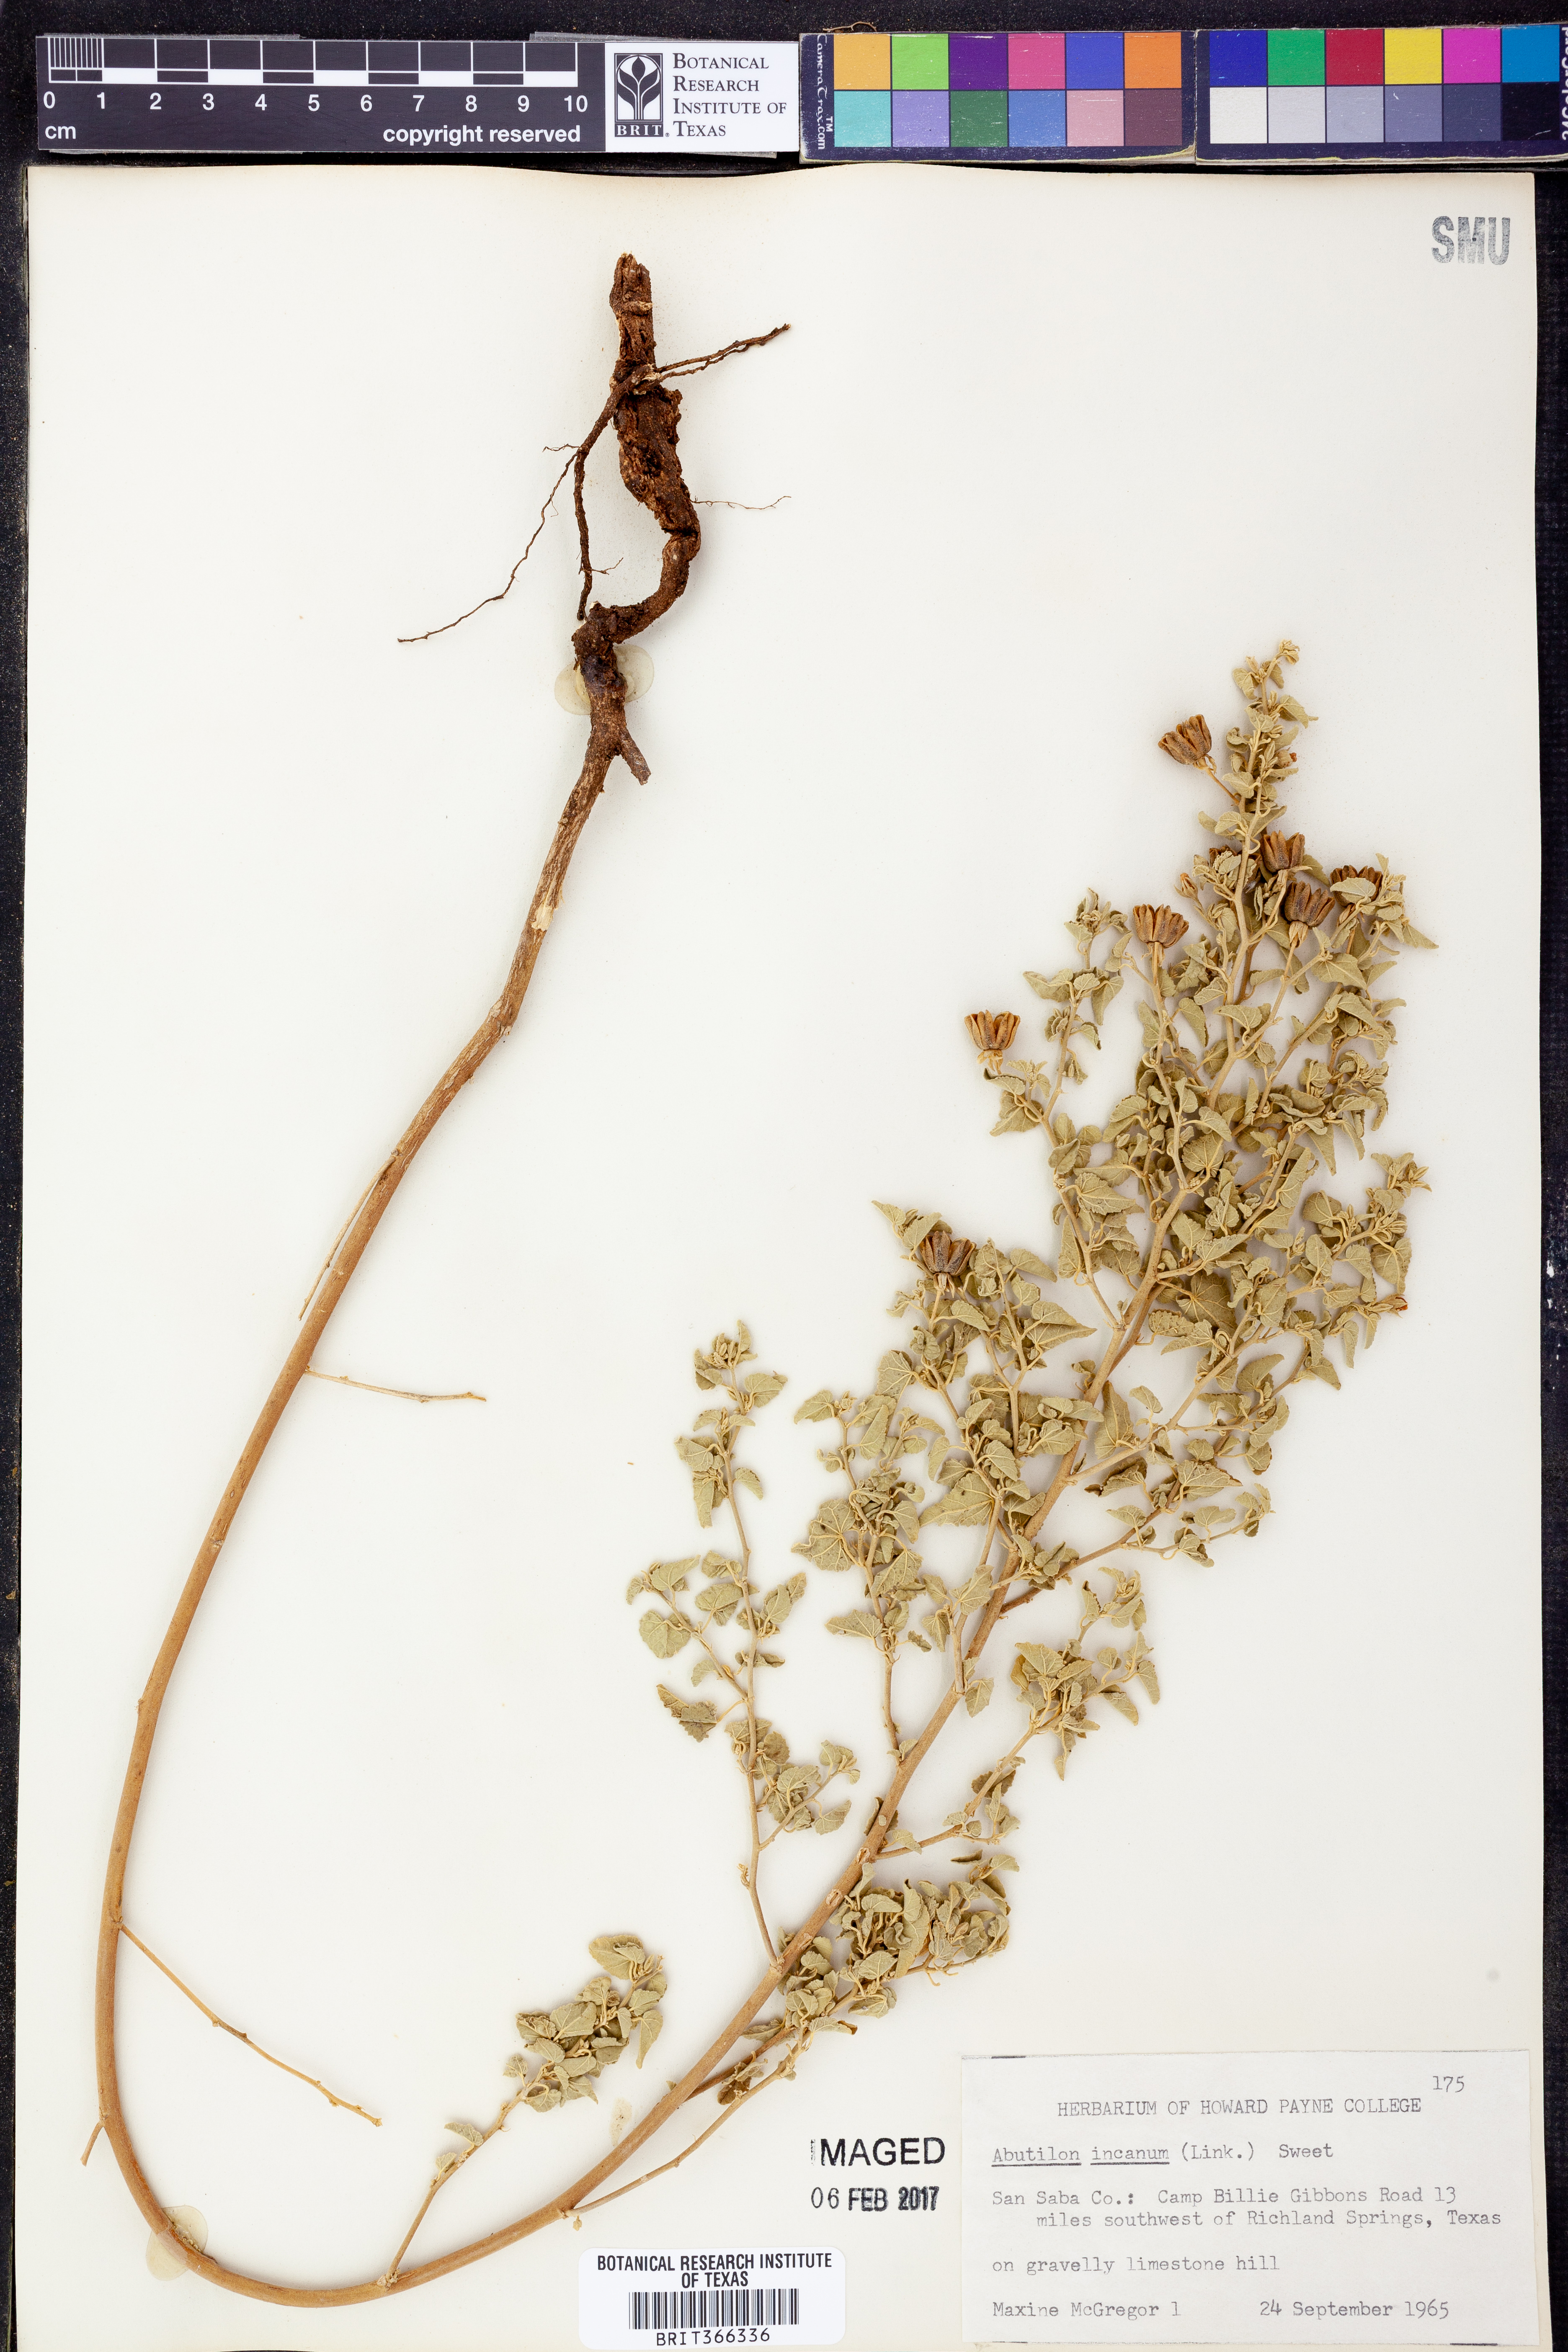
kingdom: Plantae
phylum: Tracheophyta
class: Magnoliopsida
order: Malvales
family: Malvaceae
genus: Abutilon
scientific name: Abutilon incanum
